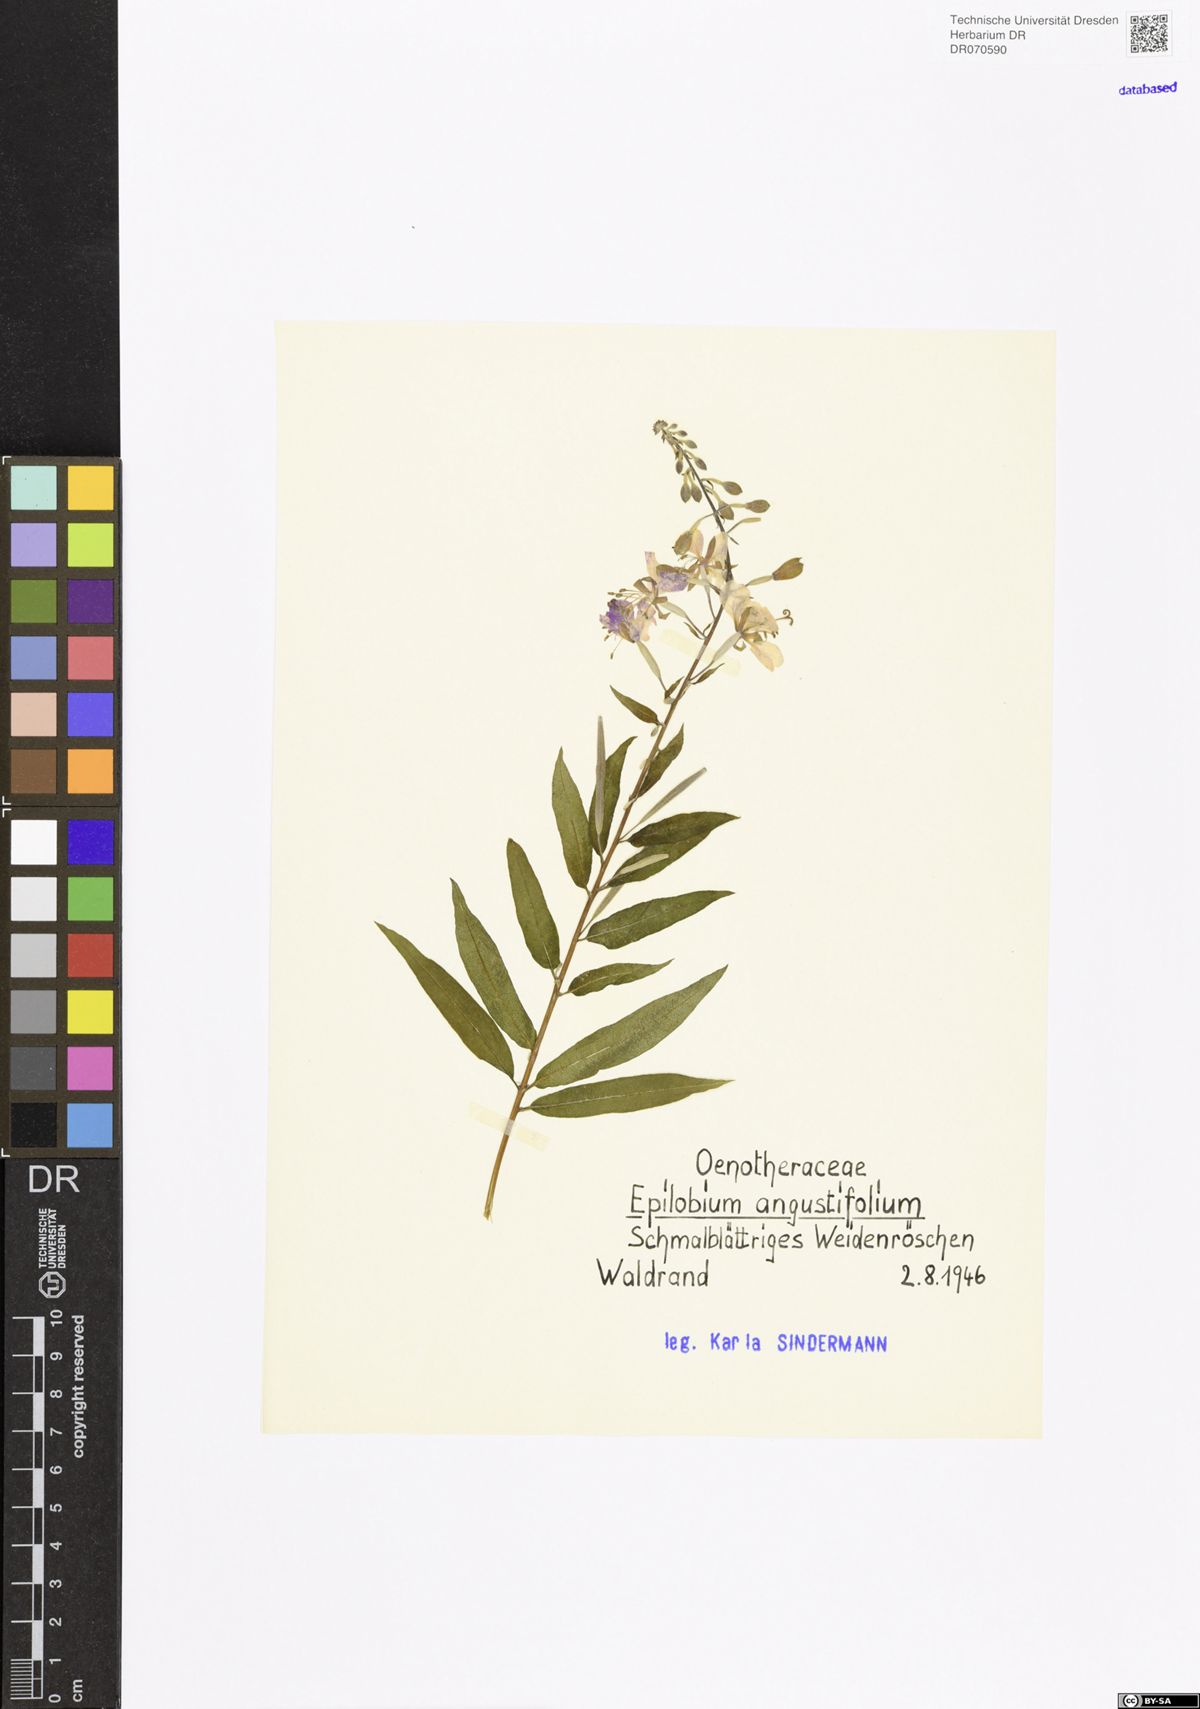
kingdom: Plantae
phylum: Tracheophyta
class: Magnoliopsida
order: Myrtales
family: Onagraceae
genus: Chamaenerion
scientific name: Chamaenerion angustifolium
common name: Fireweed
